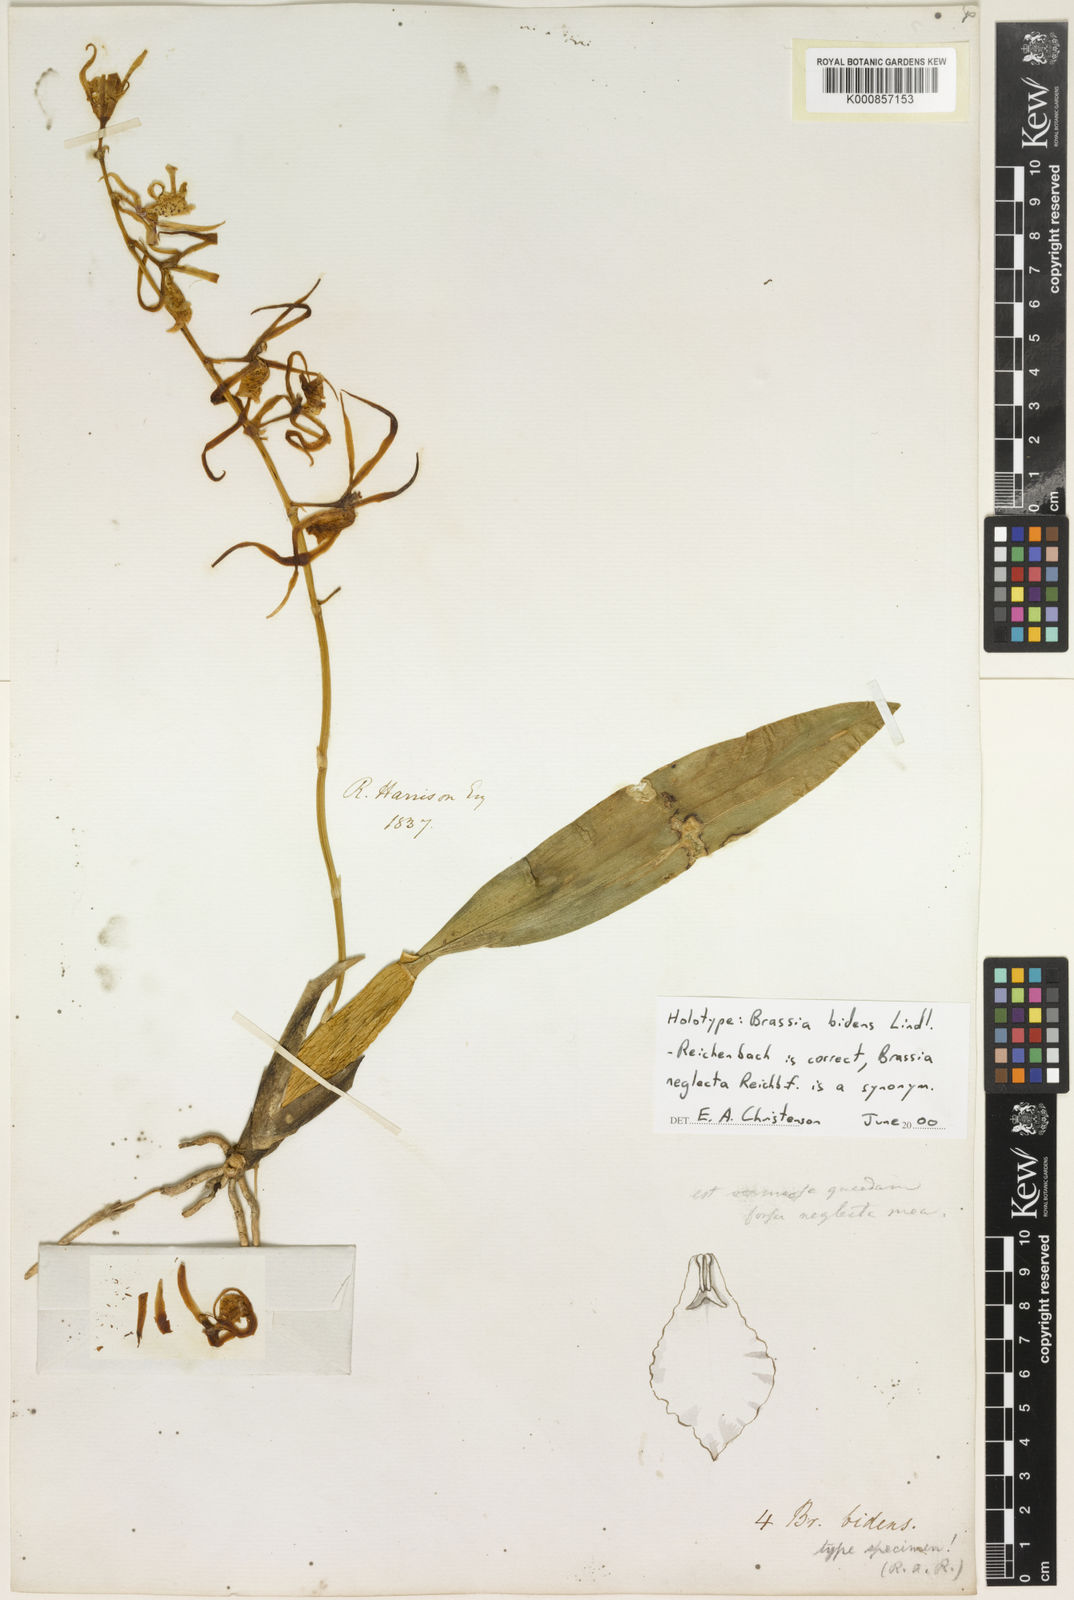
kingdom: Plantae
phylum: Tracheophyta
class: Liliopsida
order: Asparagales
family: Orchidaceae
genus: Brassia
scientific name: Brassia bidens
